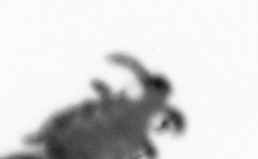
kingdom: Animalia
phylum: Annelida
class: Polychaeta
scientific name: Polychaeta
